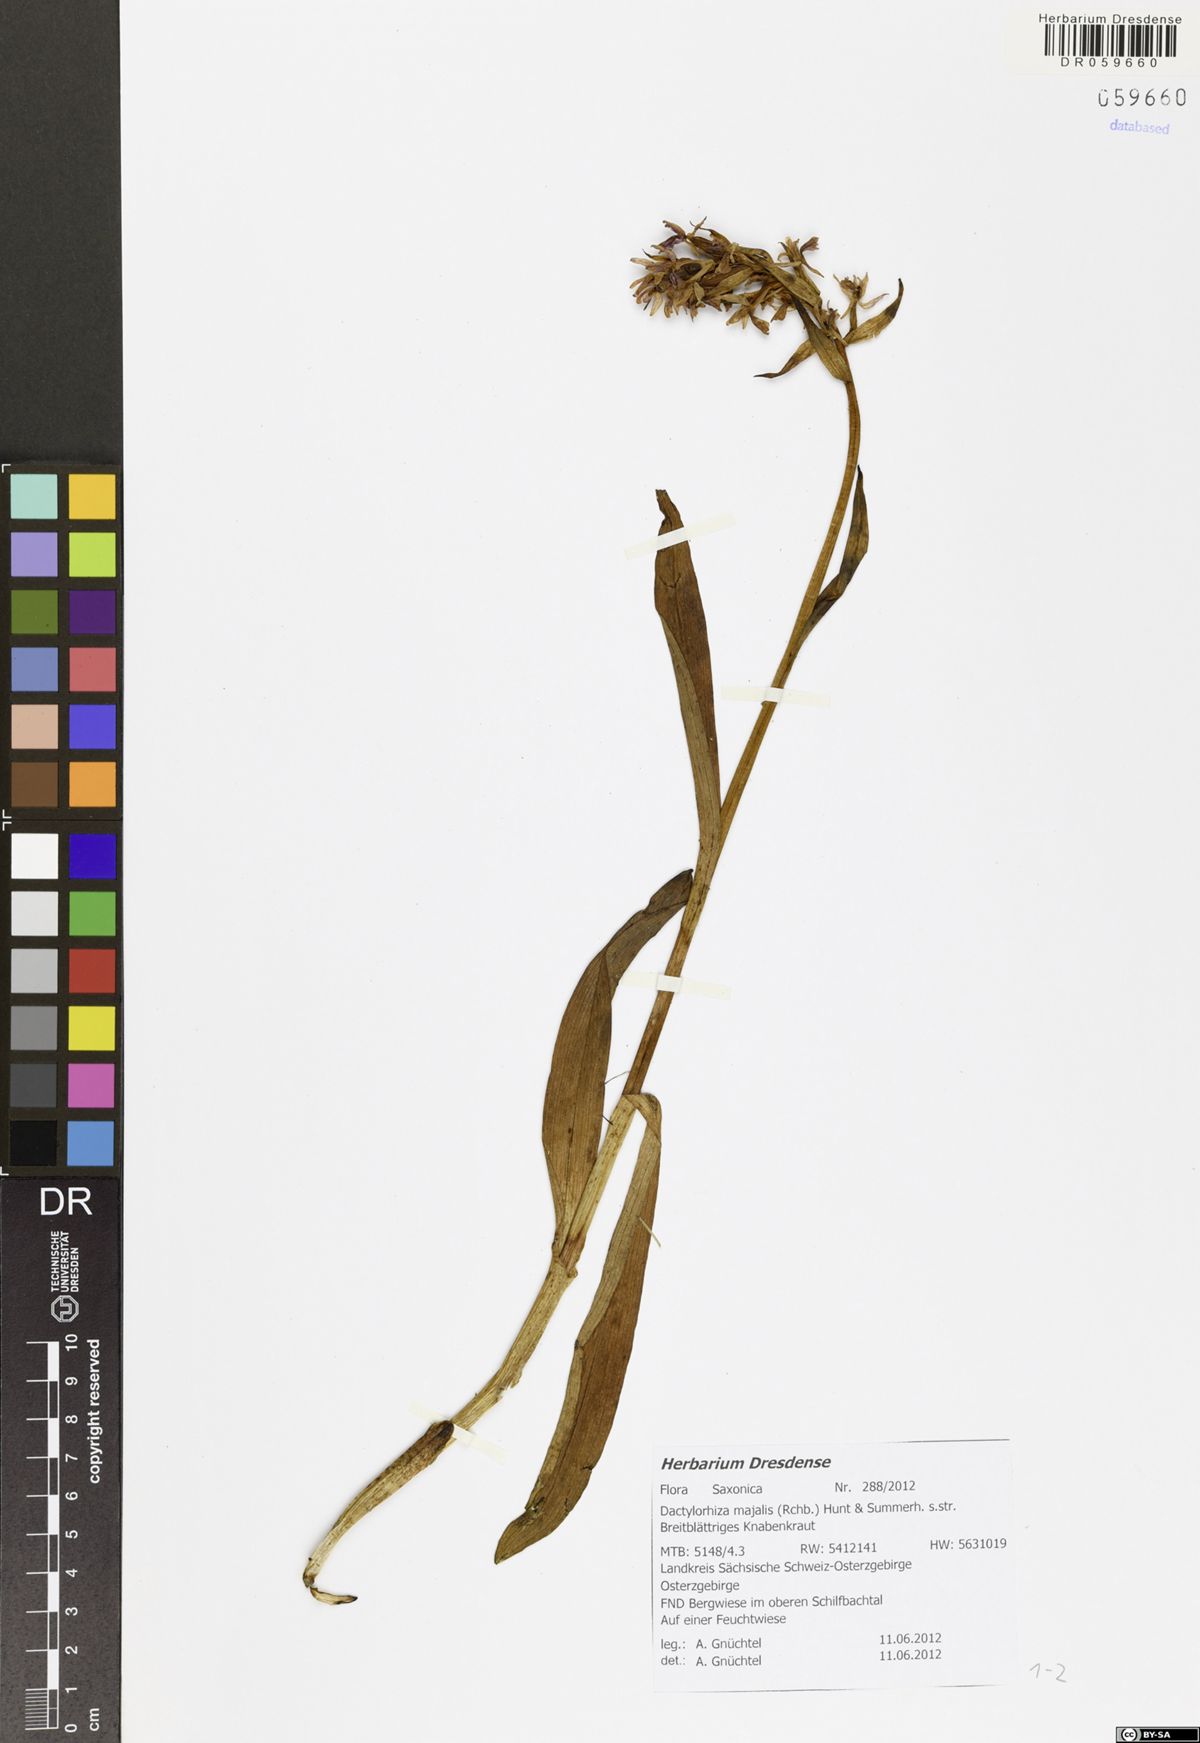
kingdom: Plantae
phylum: Tracheophyta
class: Liliopsida
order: Asparagales
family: Orchidaceae
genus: Dactylorhiza
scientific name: Dactylorhiza majalis
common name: Marsh orchid
